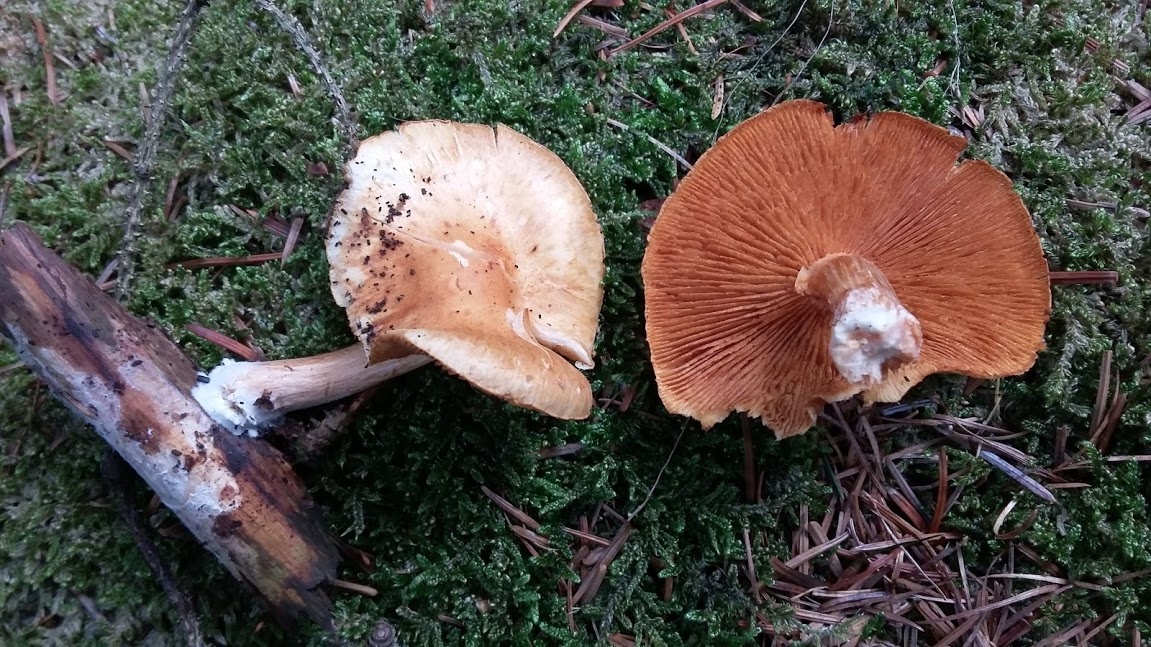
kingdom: Fungi
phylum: Basidiomycota
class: Agaricomycetes
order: Agaricales
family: Hymenogastraceae
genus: Gymnopilus
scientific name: Gymnopilus
